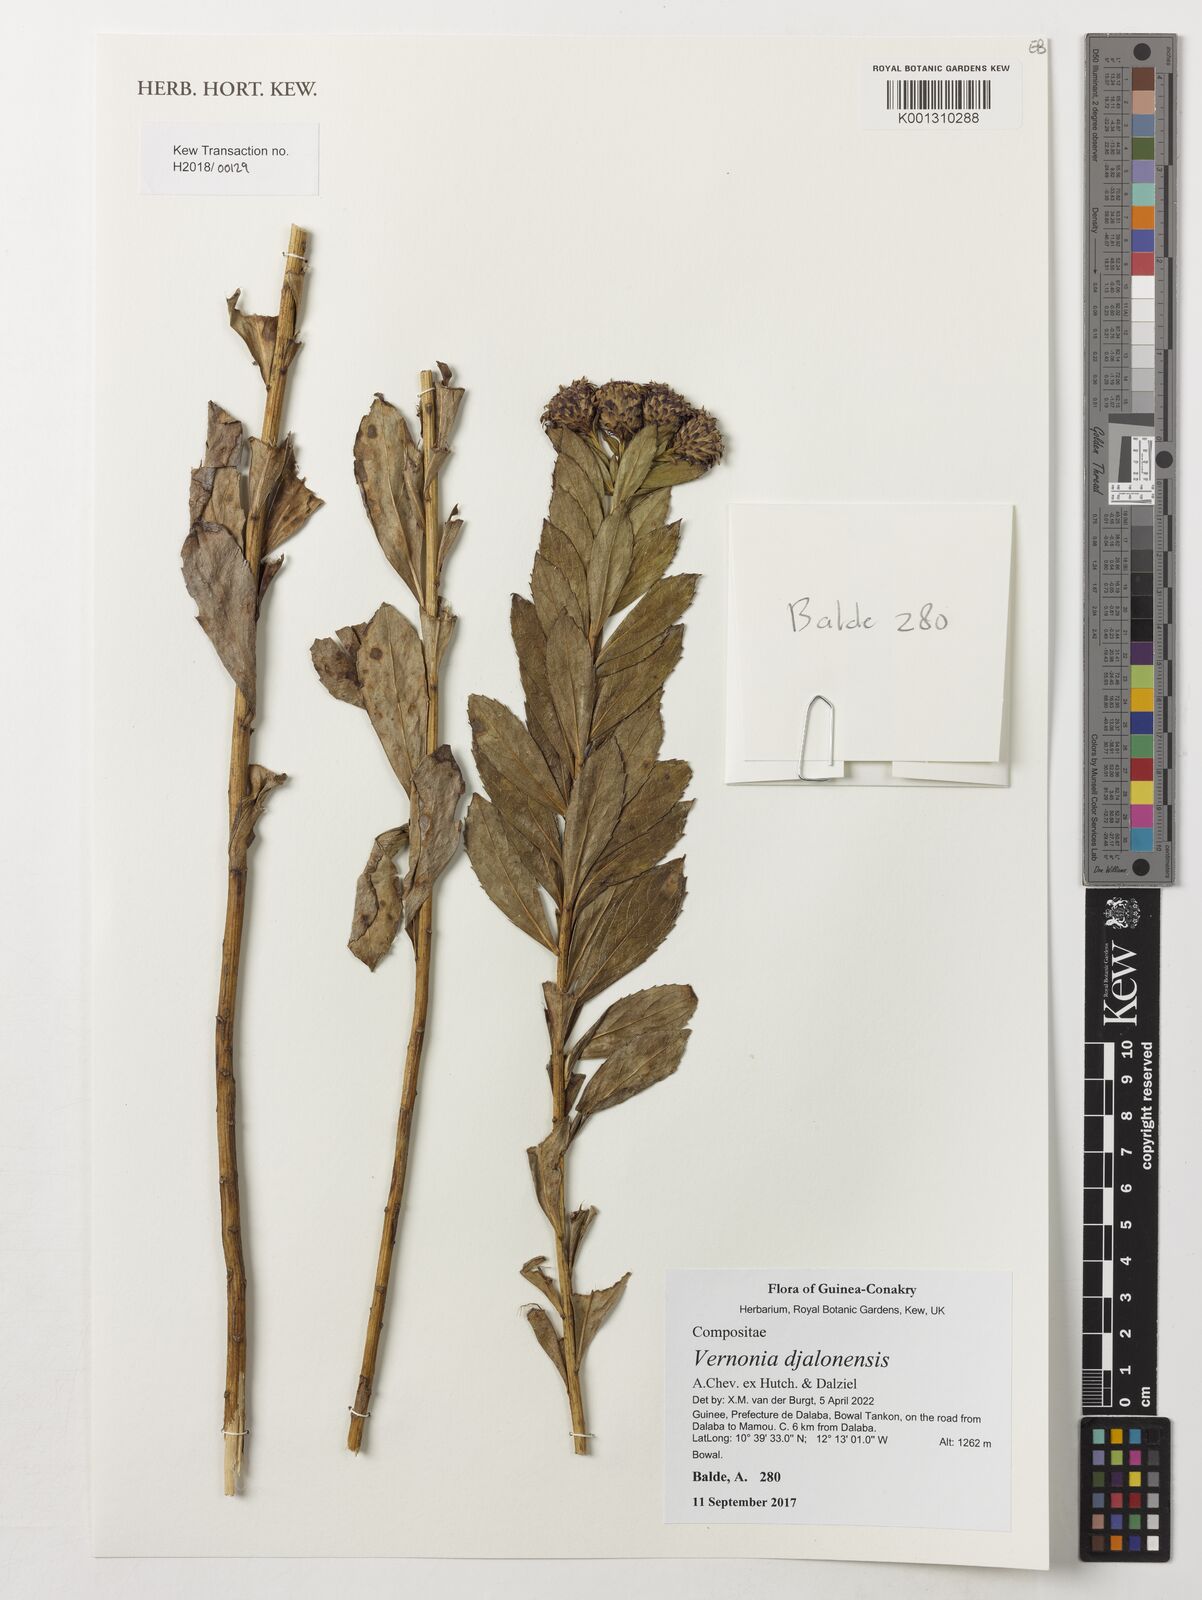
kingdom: Plantae
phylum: Tracheophyta
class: Magnoliopsida
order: Asterales
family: Asteraceae
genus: Vernonia
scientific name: Vernonia djalonensis
